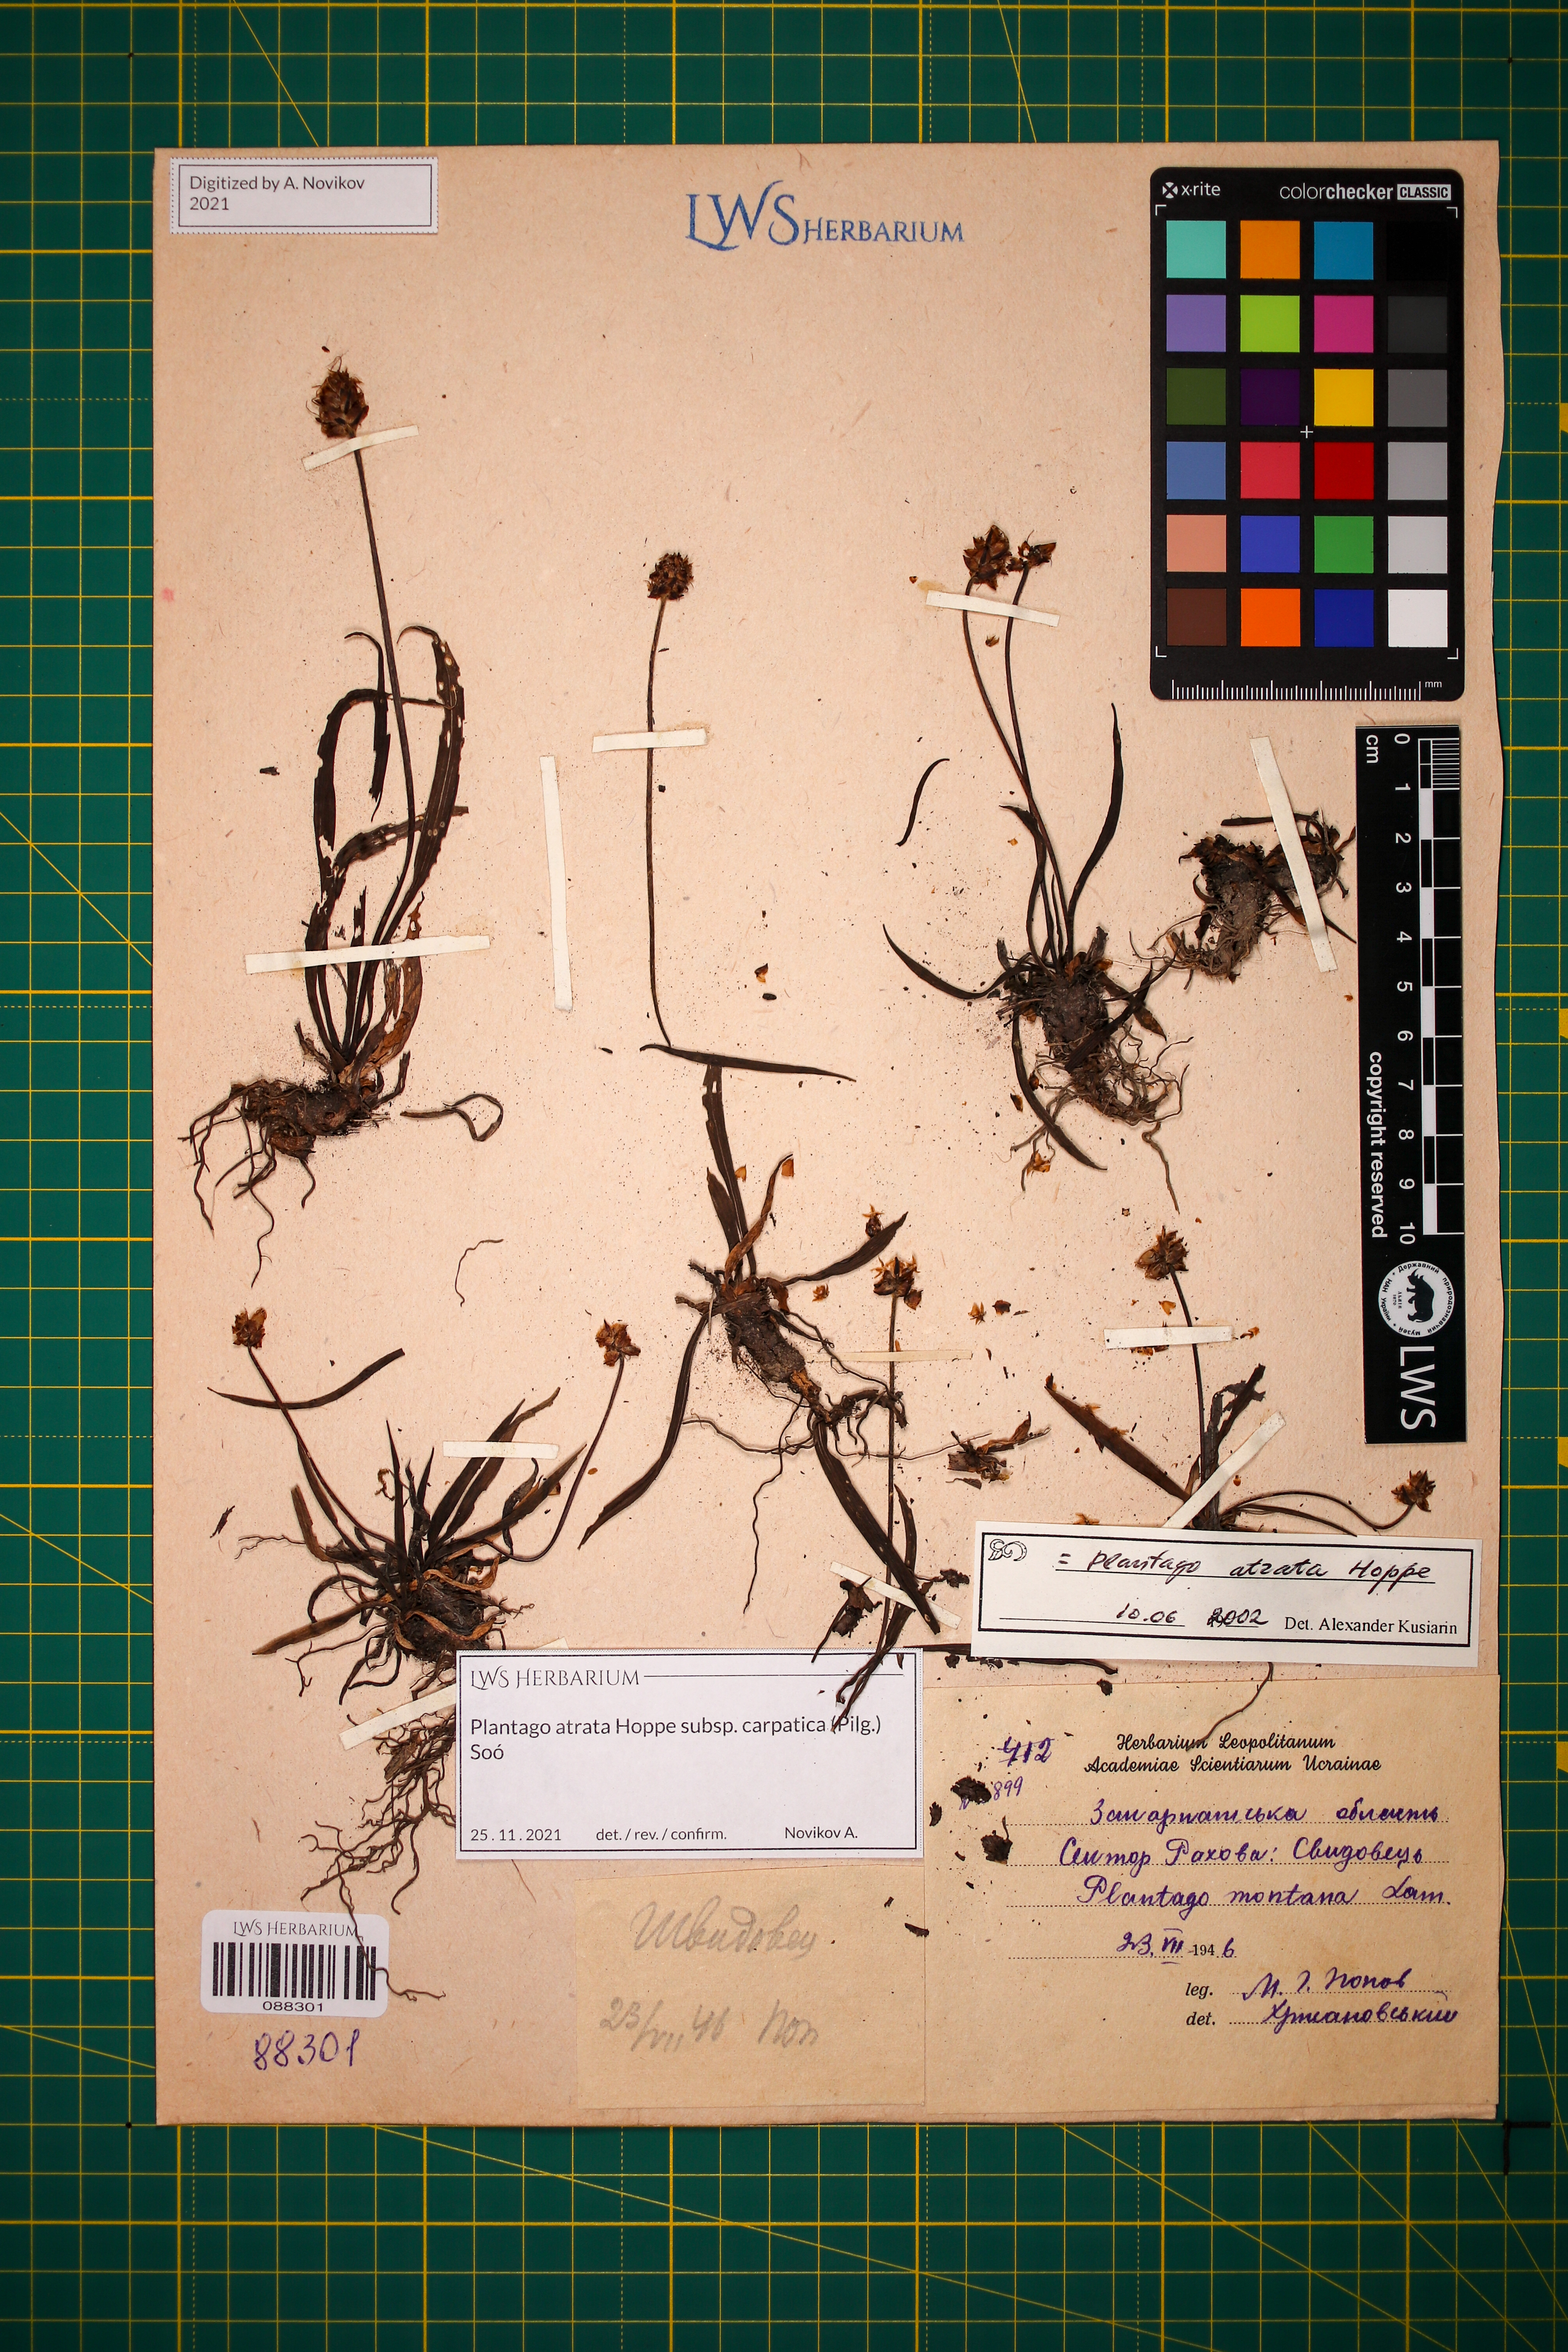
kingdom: Plantae
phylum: Tracheophyta
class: Magnoliopsida
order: Lamiales
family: Plantaginaceae
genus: Plantago
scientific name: Plantago atrata
